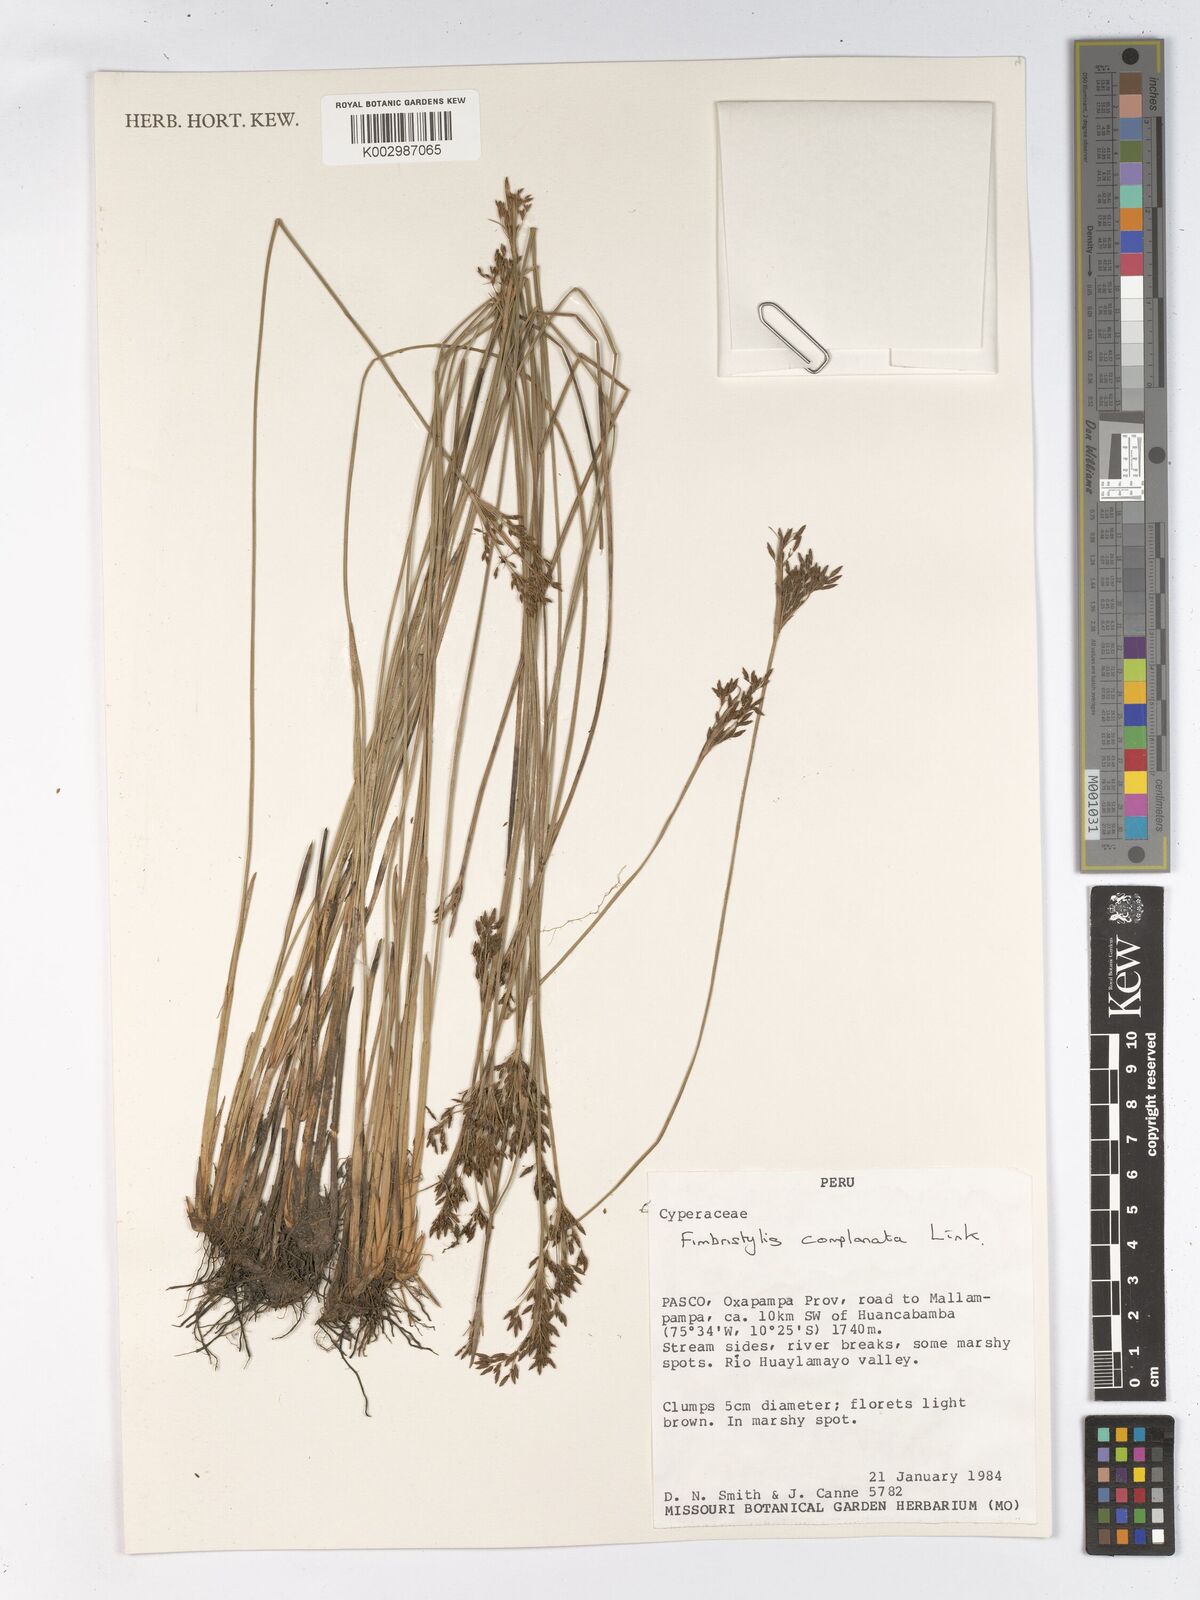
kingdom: Plantae
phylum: Tracheophyta
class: Liliopsida
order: Poales
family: Cyperaceae
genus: Fimbristylis
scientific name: Fimbristylis complanata
